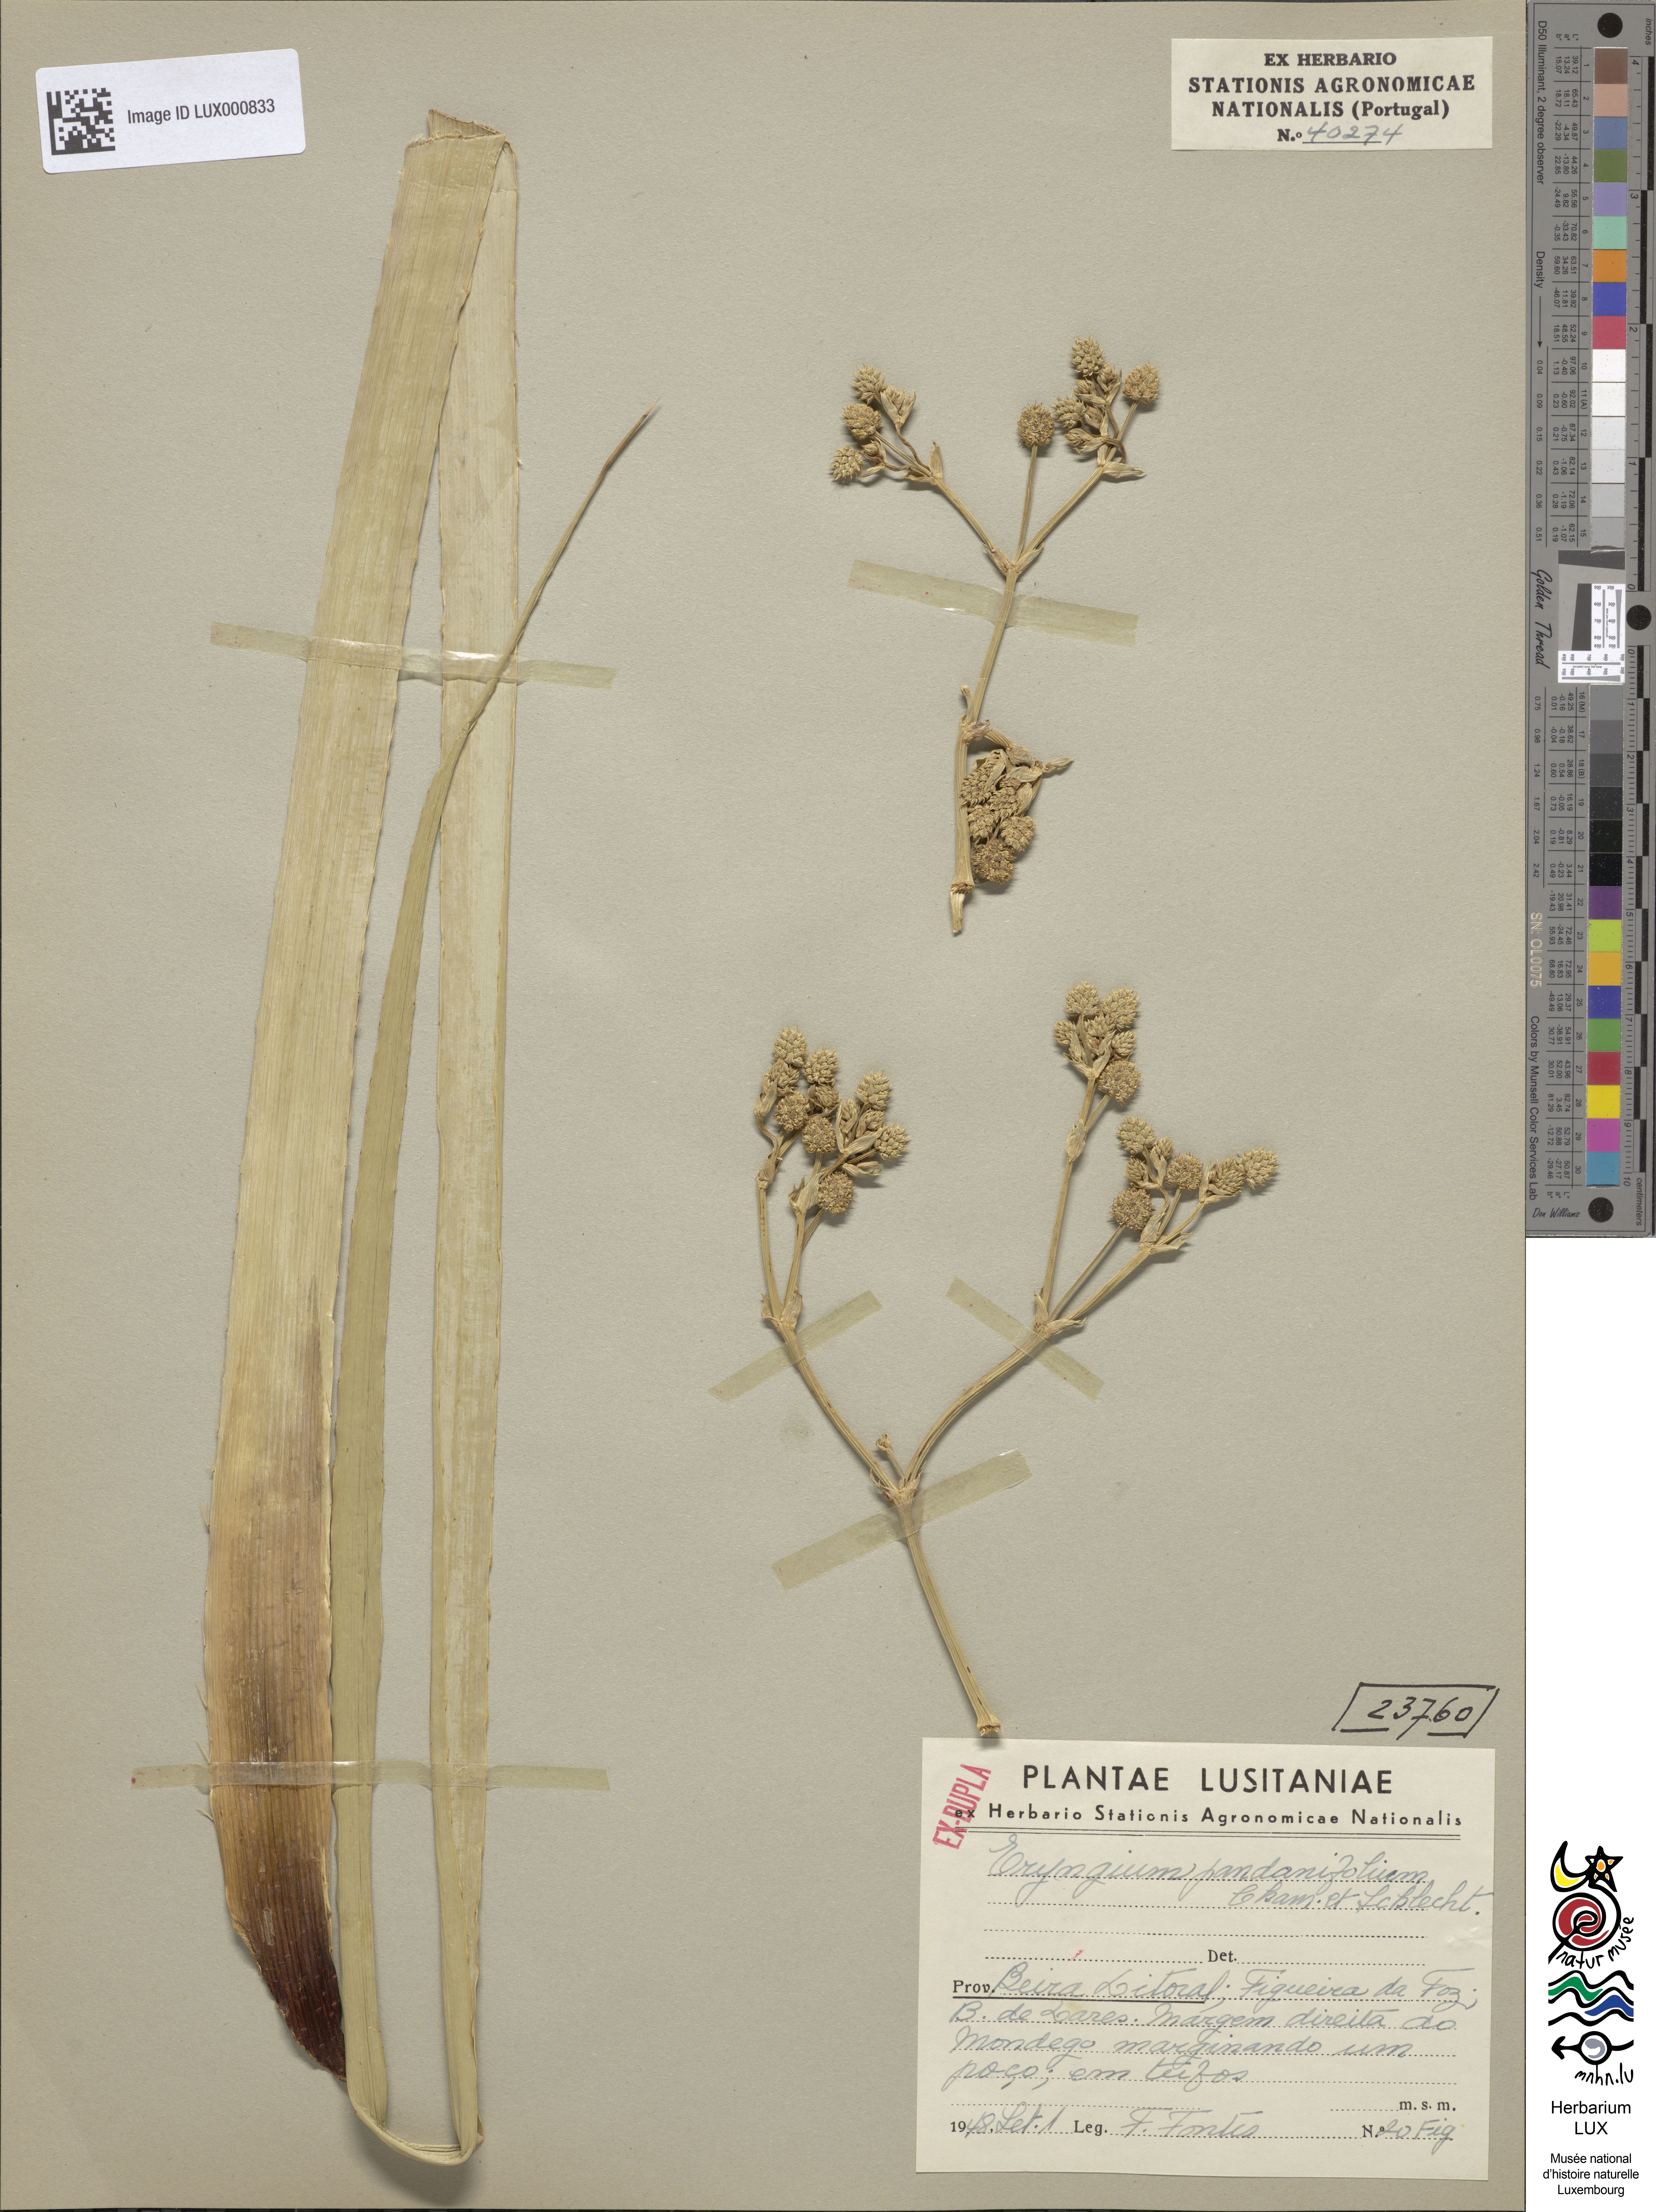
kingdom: Plantae
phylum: Tracheophyta
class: Magnoliopsida
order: Apiales
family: Apiaceae
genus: Eryngium
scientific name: Eryngium pandanifolium
